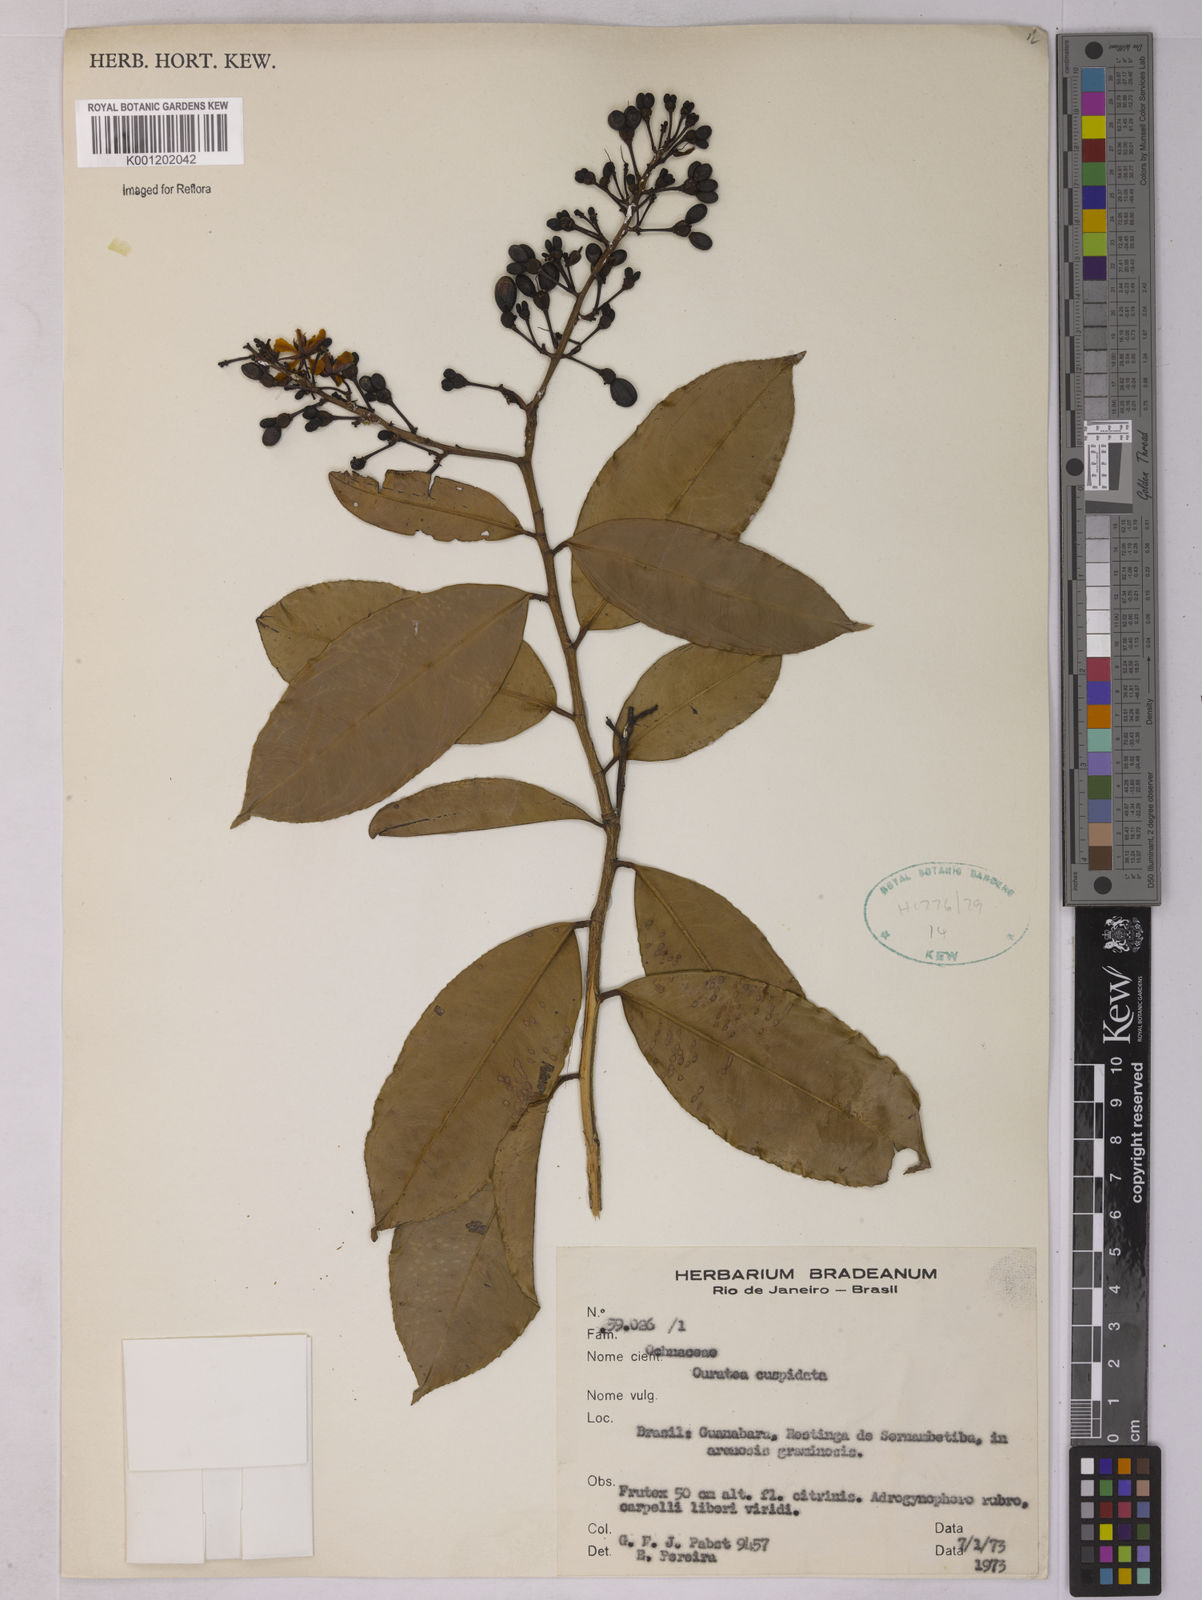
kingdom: Plantae
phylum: Tracheophyta
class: Magnoliopsida
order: Malpighiales
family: Ochnaceae
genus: Ouratea
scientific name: Ouratea cuspidata
